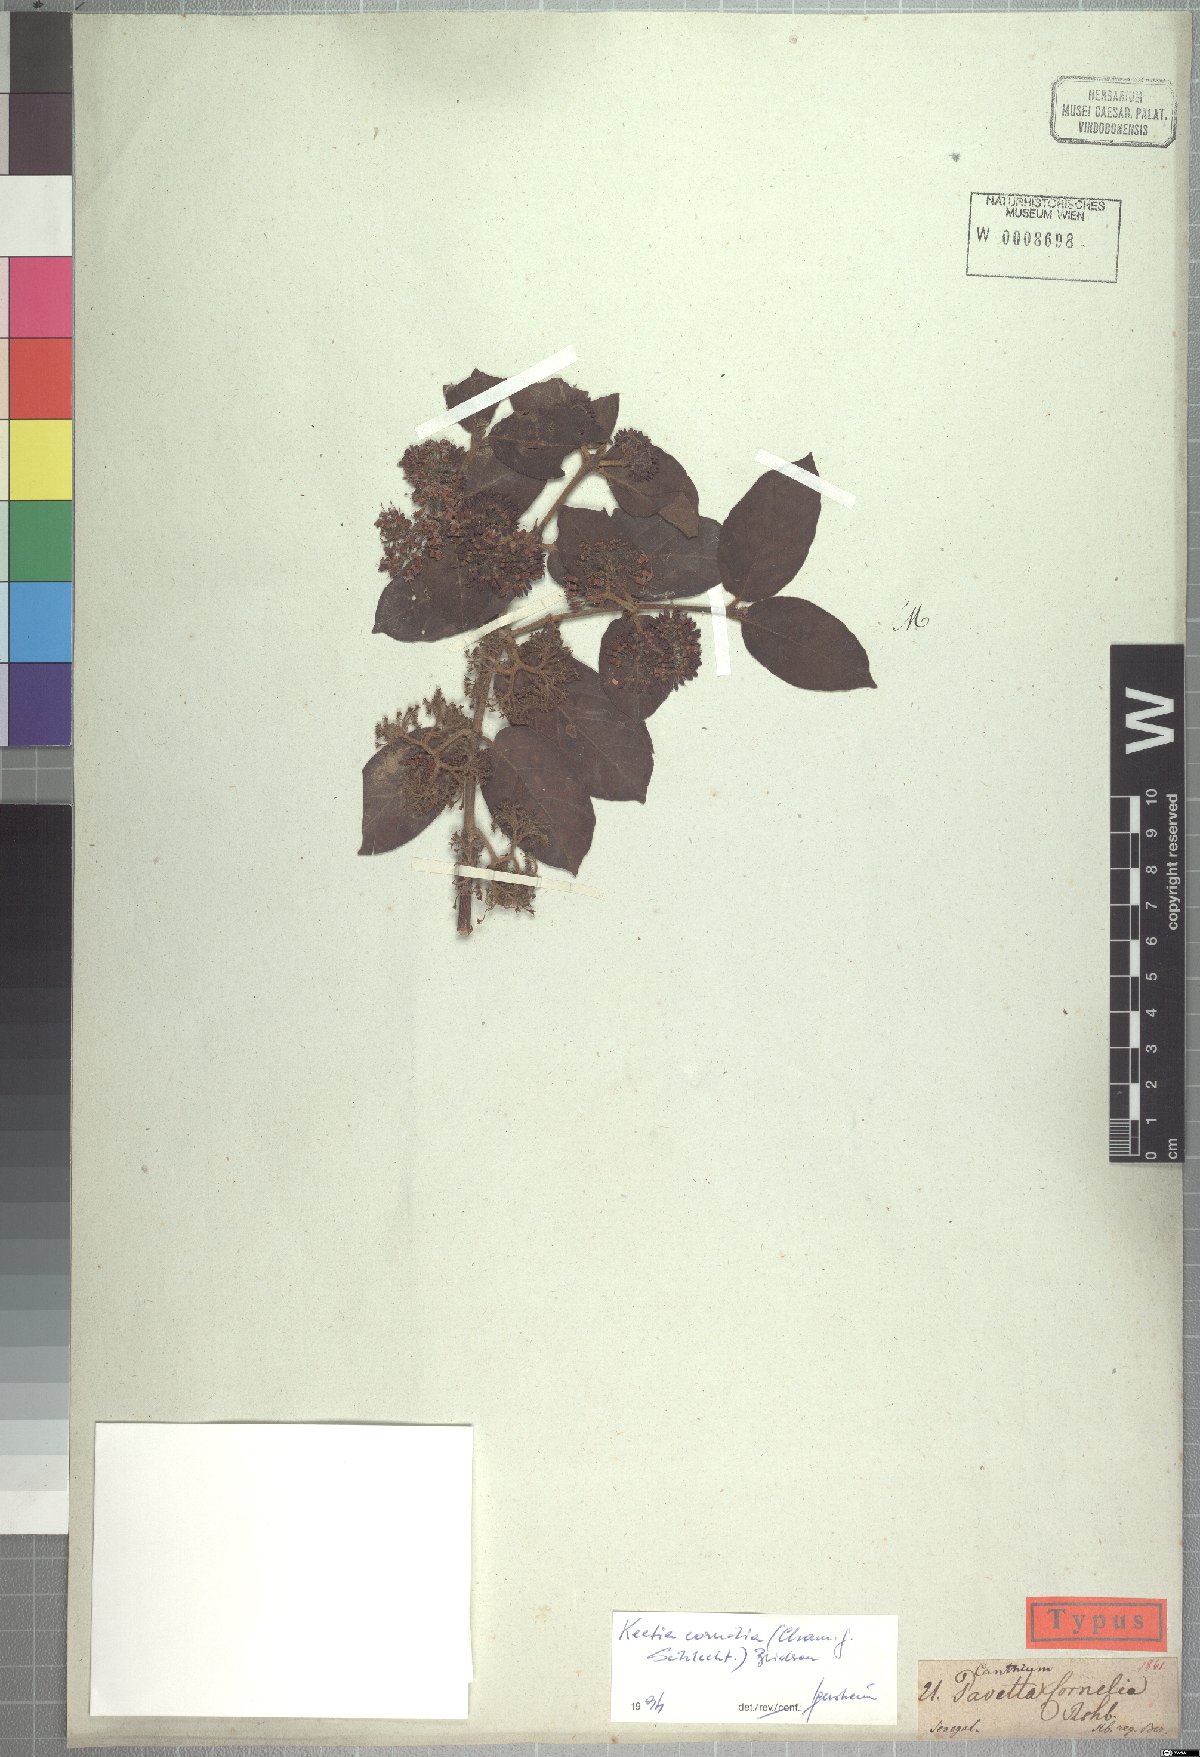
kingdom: Plantae
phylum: Tracheophyta
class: Magnoliopsida
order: Gentianales
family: Rubiaceae
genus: Keetia
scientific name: Keetia cornelia
